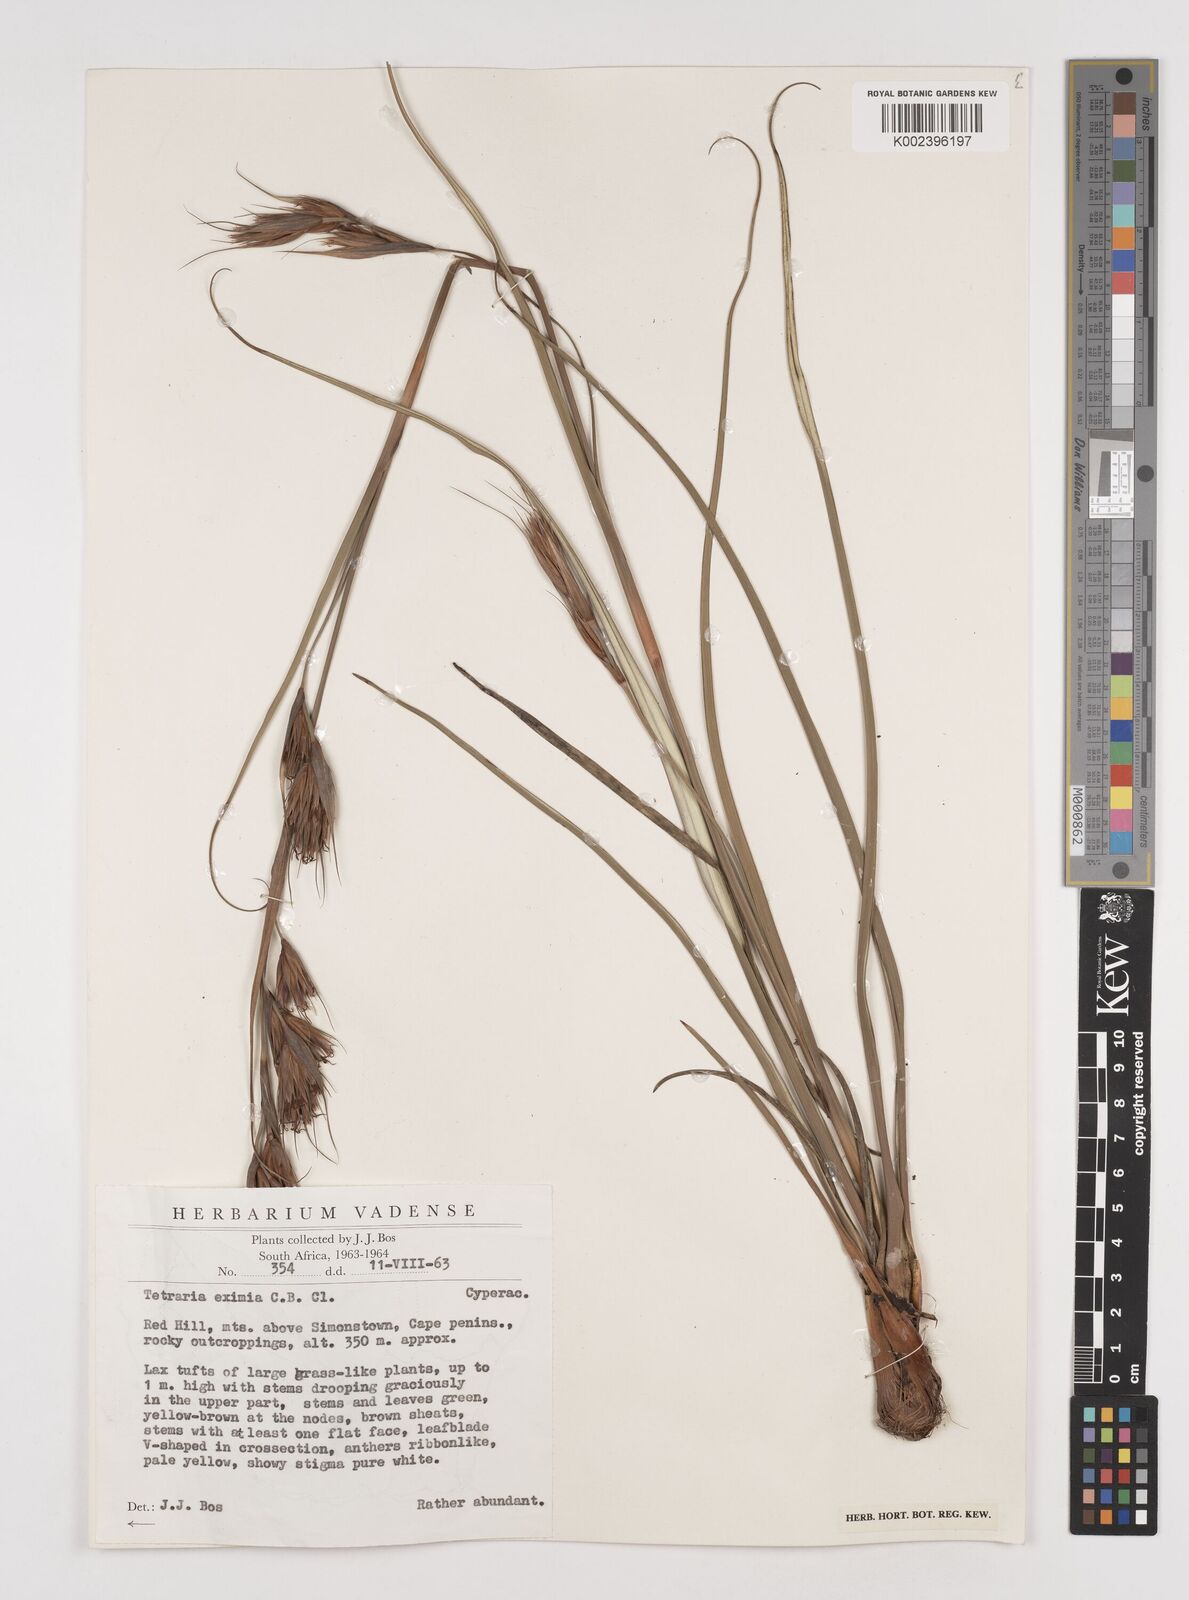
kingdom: Plantae
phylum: Tracheophyta
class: Liliopsida
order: Poales
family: Cyperaceae
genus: Tetraria
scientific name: Tetraria eximia
